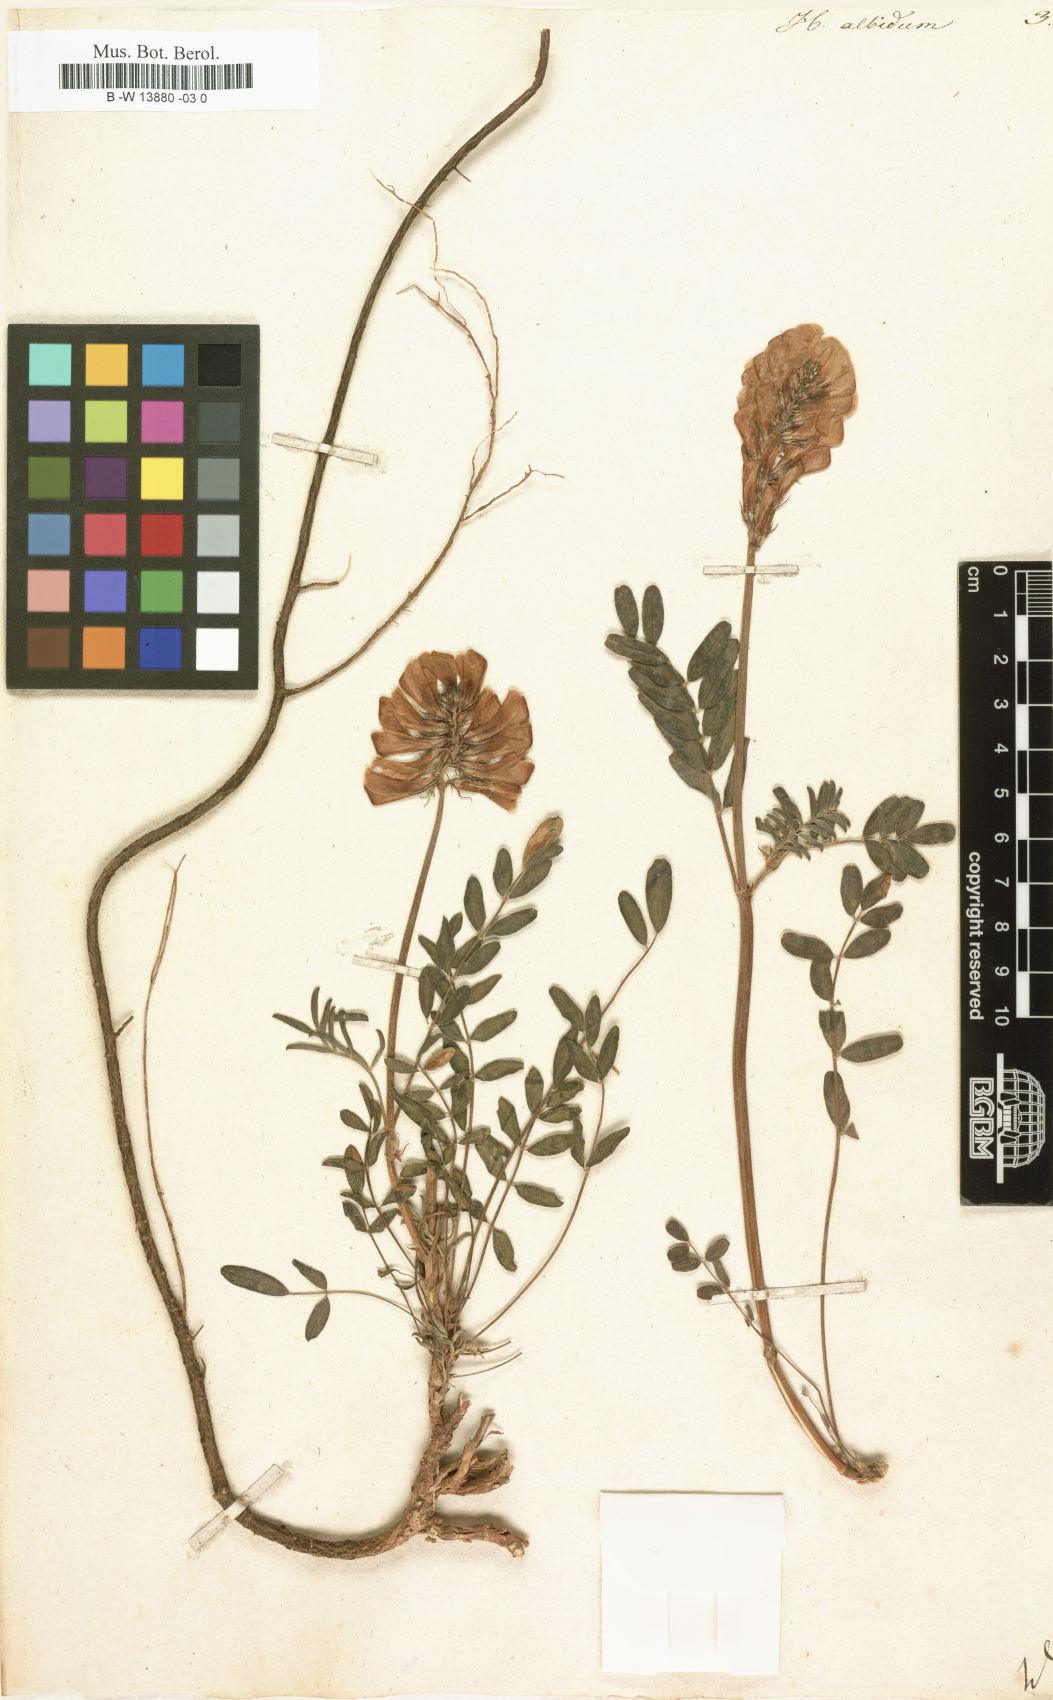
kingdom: Plantae
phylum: Tracheophyta
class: Magnoliopsida
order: Fabales
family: Fabaceae
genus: Hedysarum
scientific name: Hedysarum algidum
